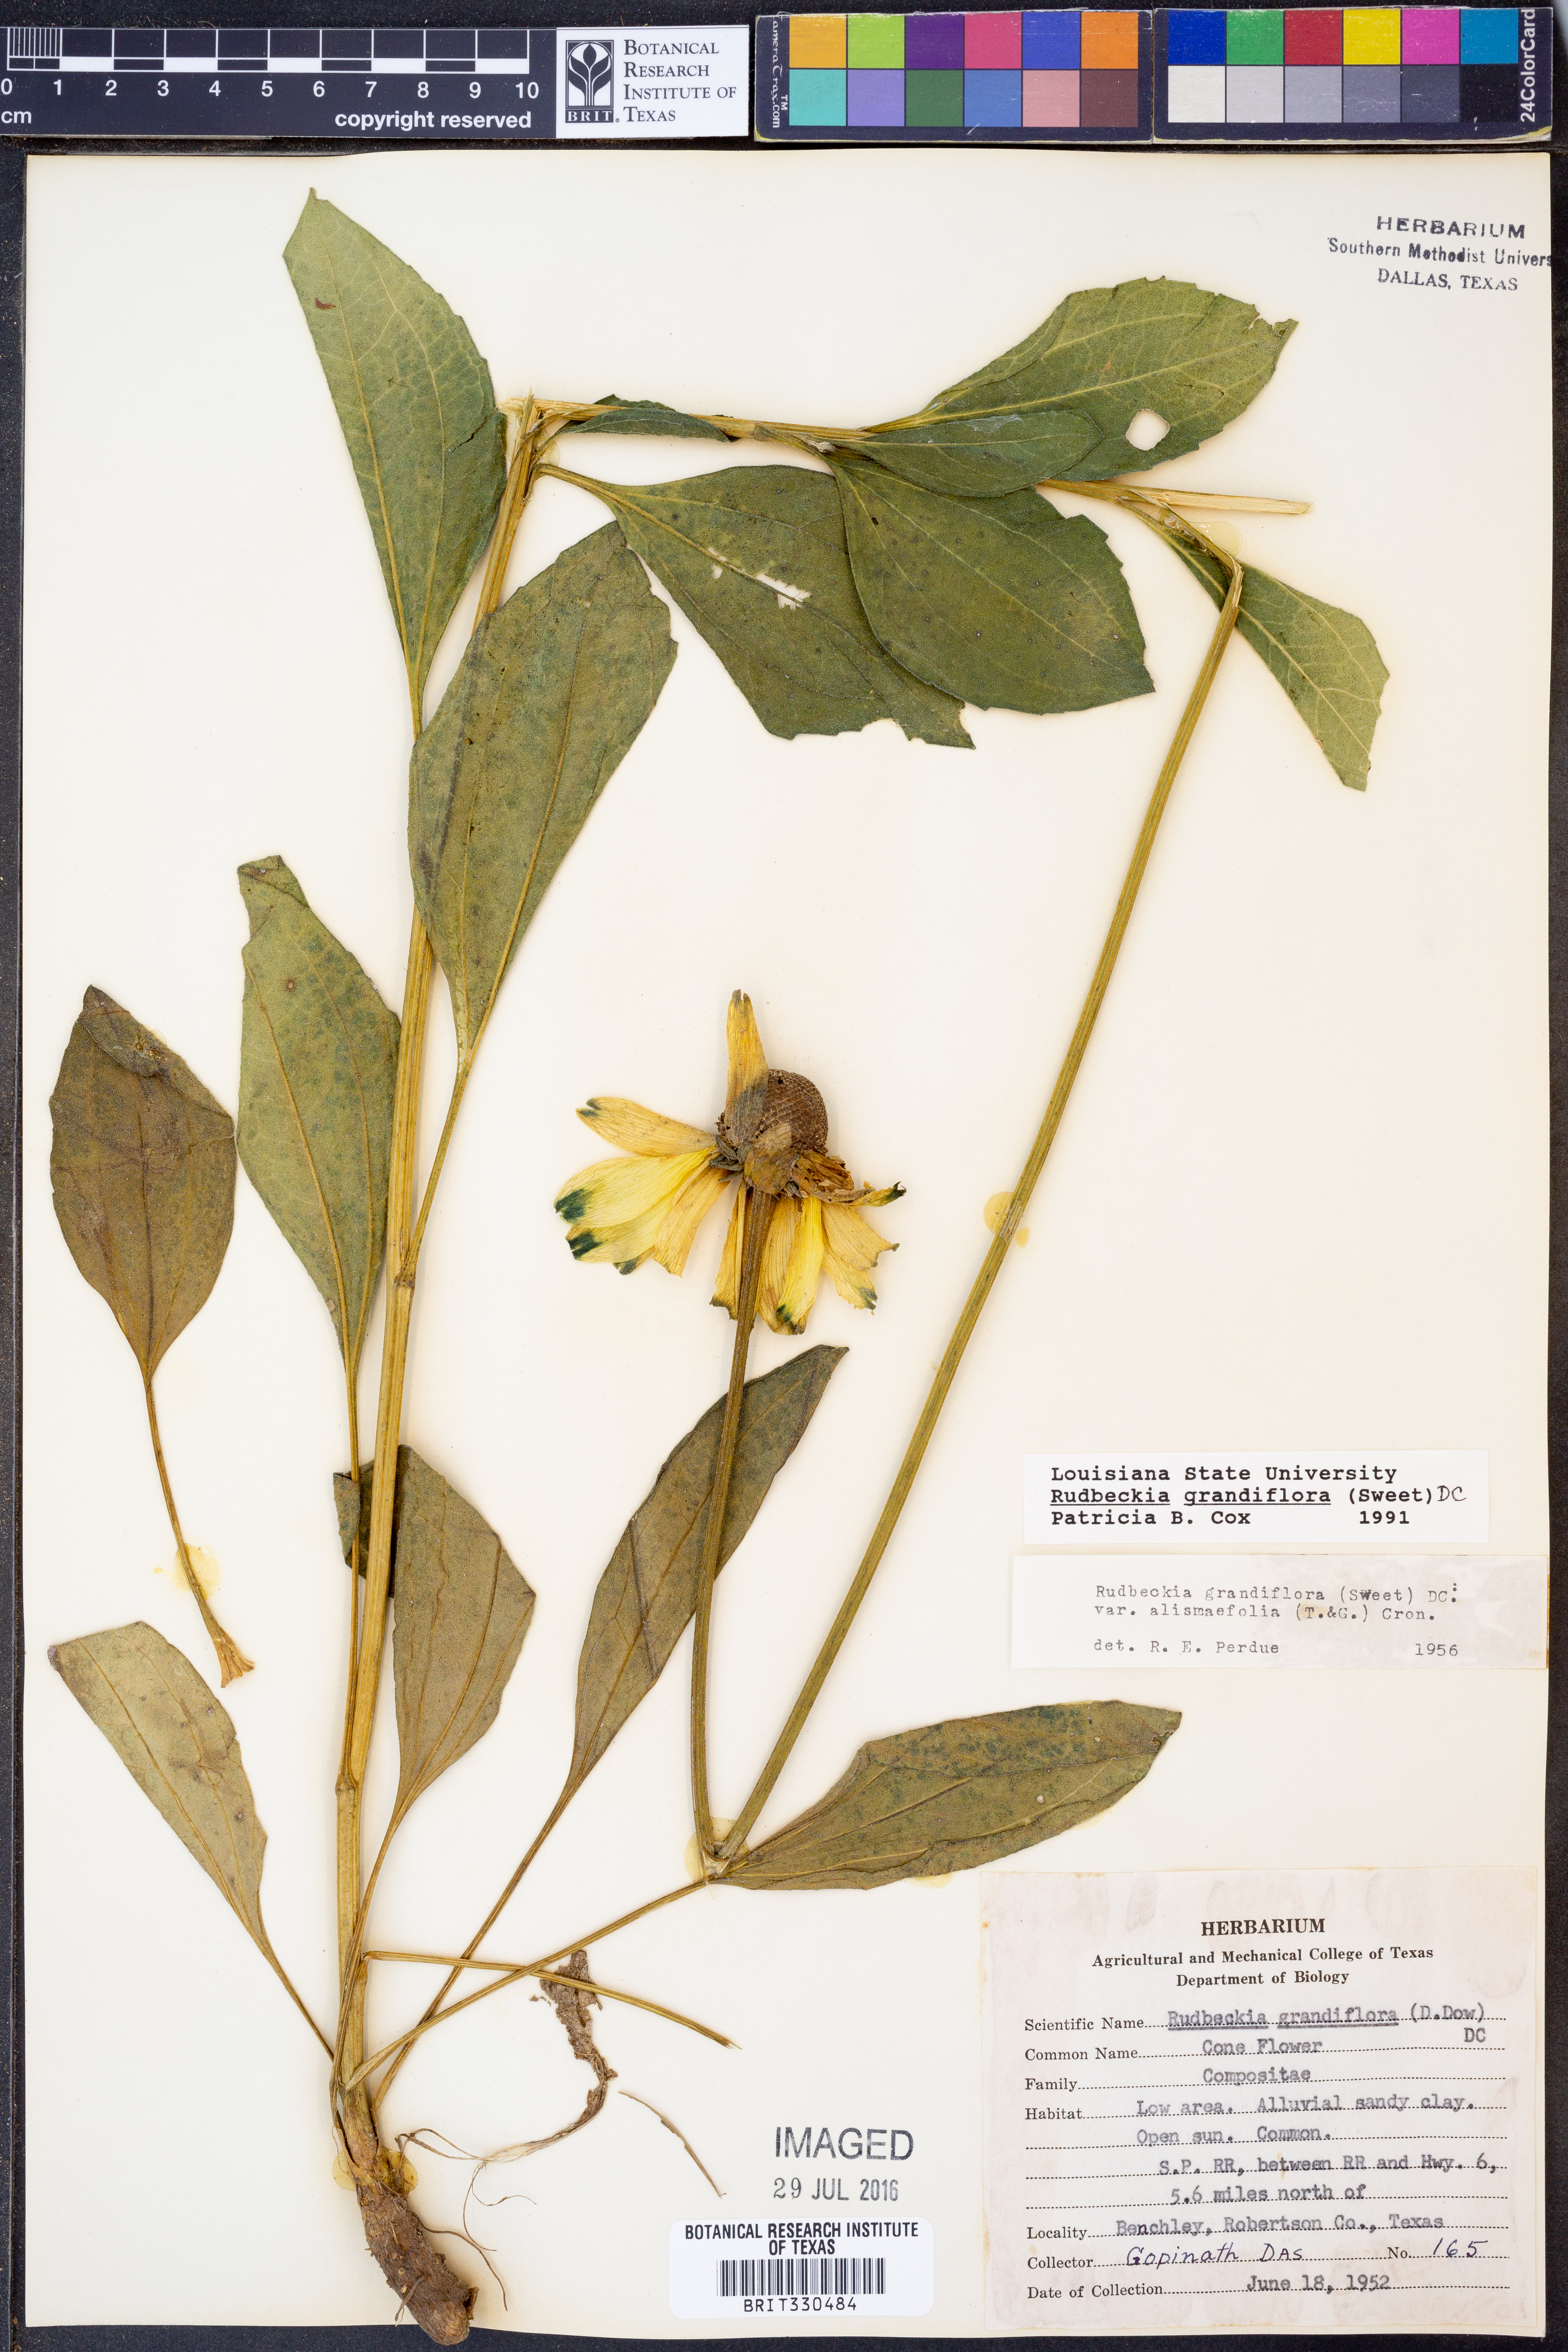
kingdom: Plantae
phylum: Tracheophyta
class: Magnoliopsida
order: Asterales
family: Asteraceae
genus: Rudbeckia
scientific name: Rudbeckia grandiflora
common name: Large-flowered coneflower
